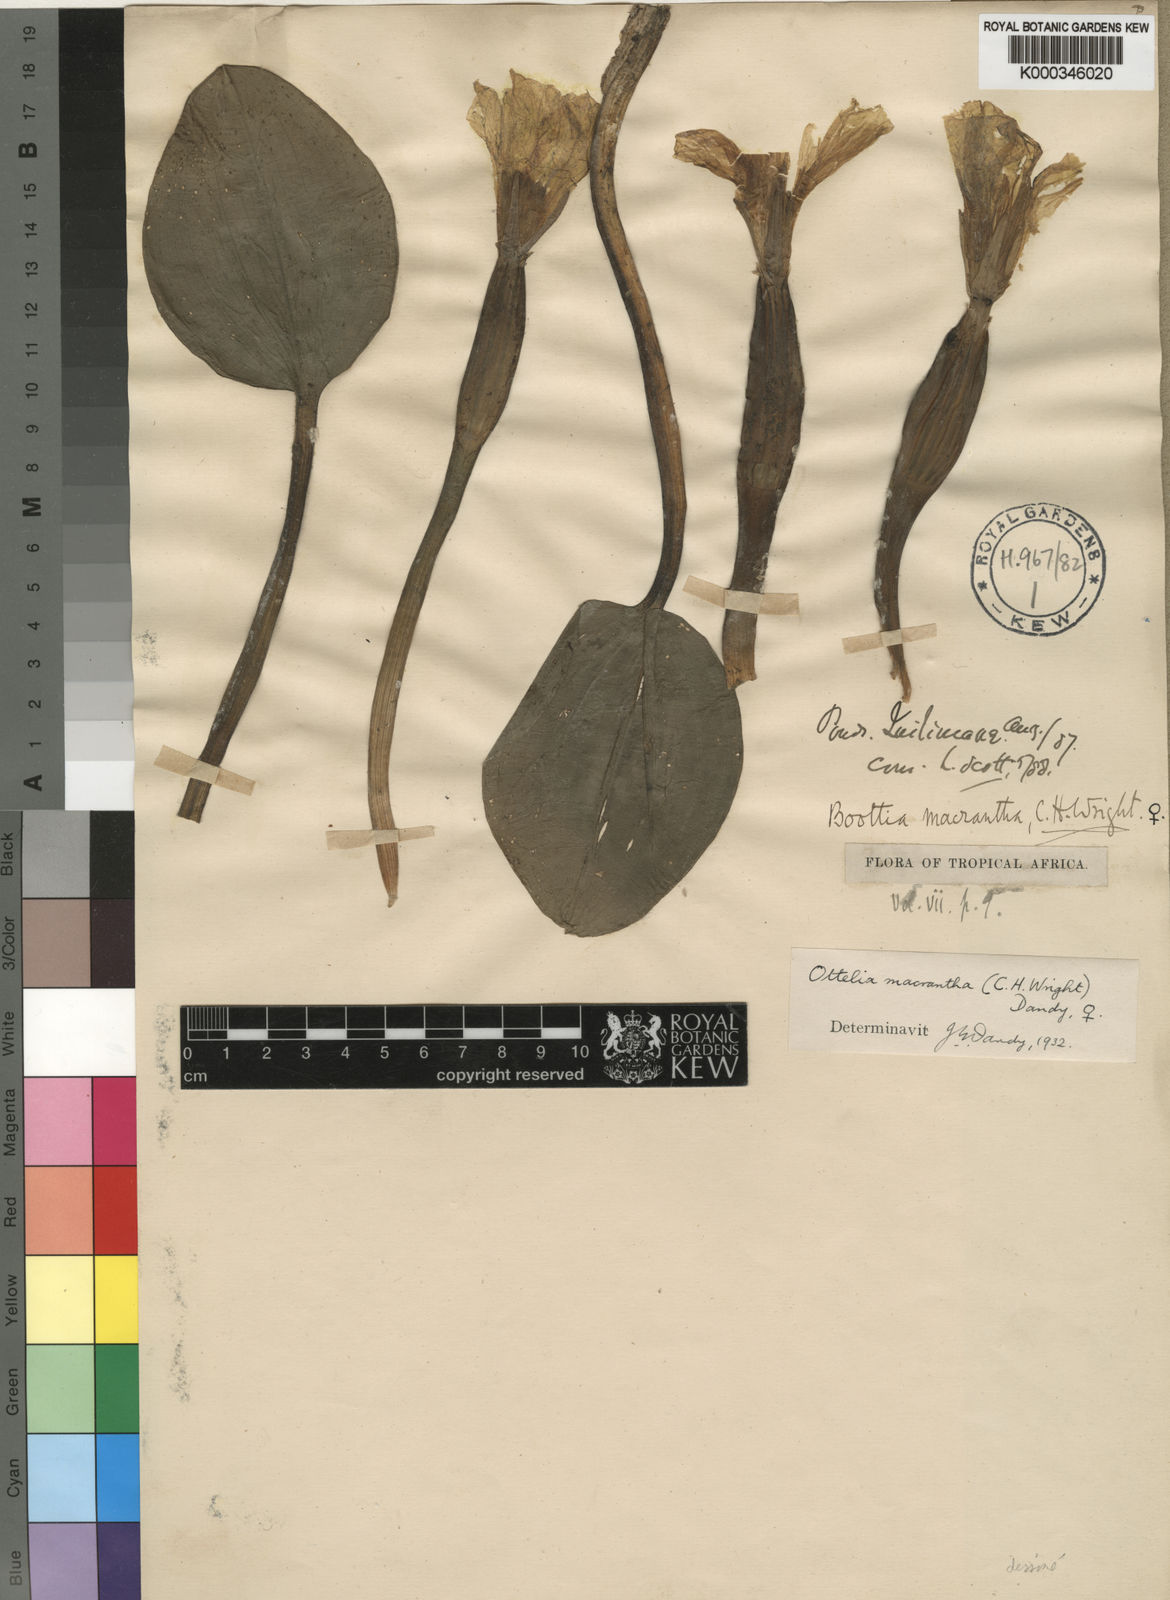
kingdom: Plantae
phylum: Tracheophyta
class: Liliopsida
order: Alismatales
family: Hydrocharitaceae
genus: Ottelia
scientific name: Ottelia
